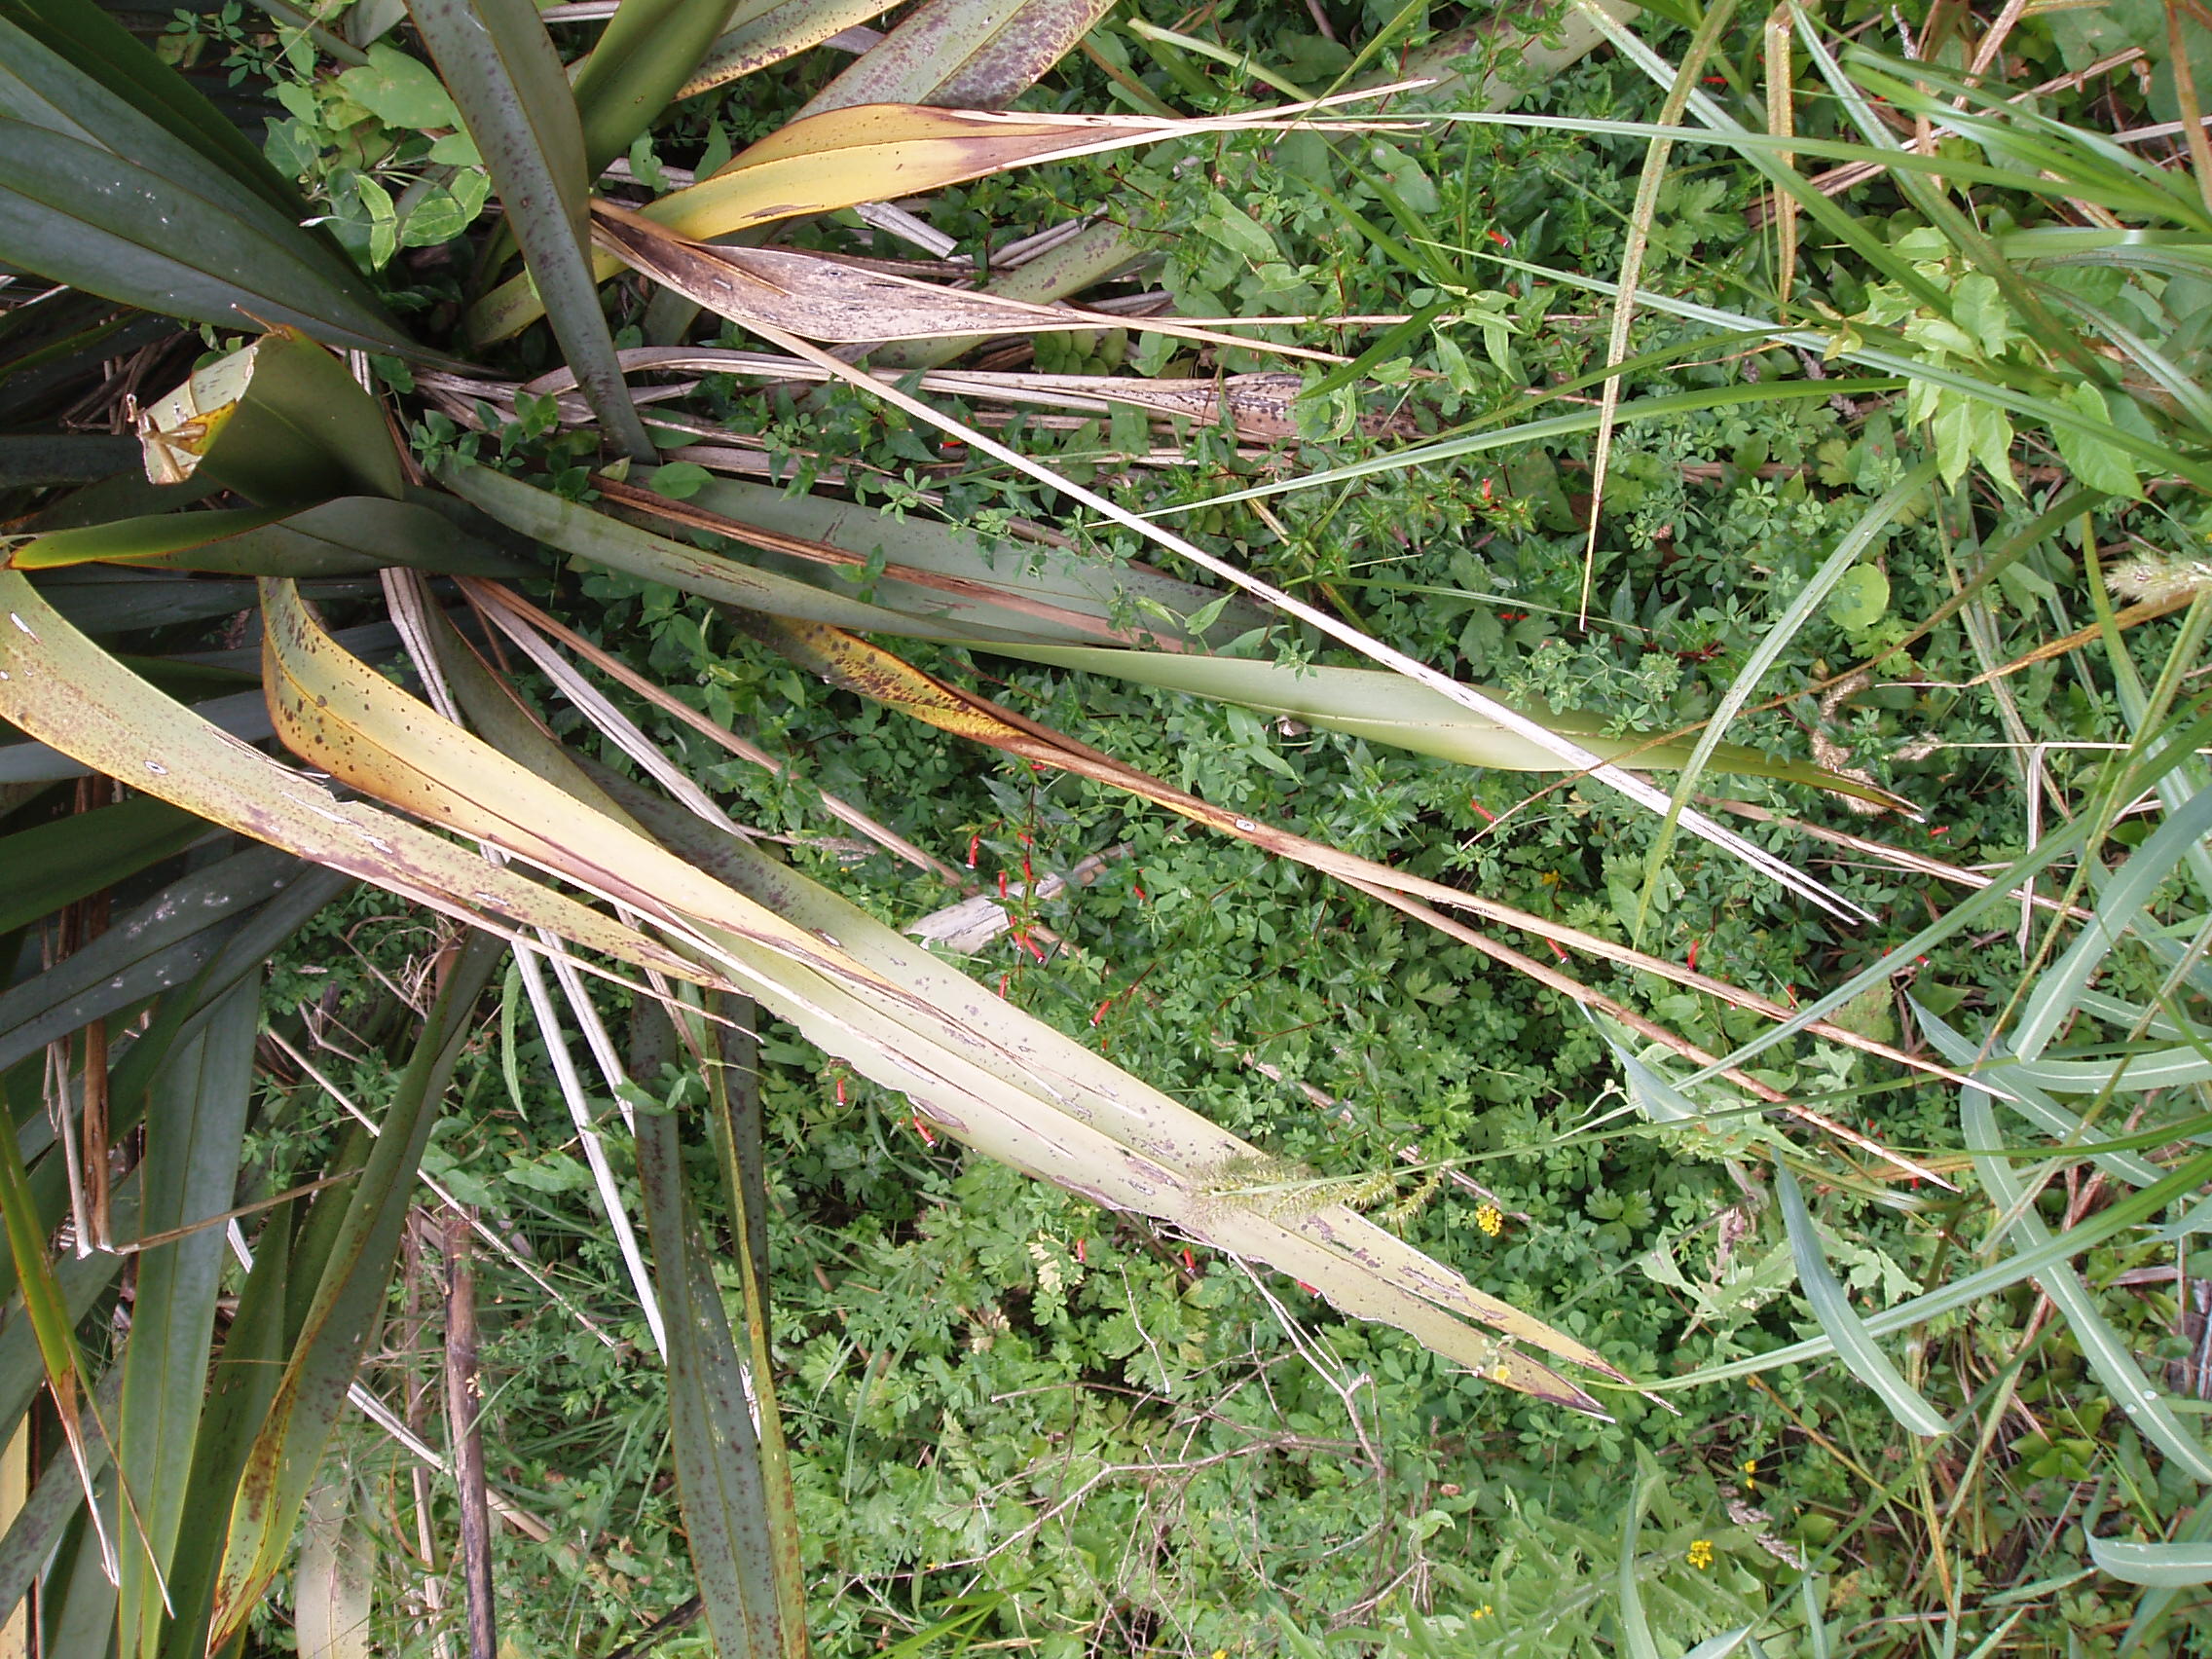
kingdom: Plantae
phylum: Tracheophyta
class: Magnoliopsida
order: Myrtales
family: Lythraceae
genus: Cuphea
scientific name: Cuphea ignea
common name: Cigar flower
